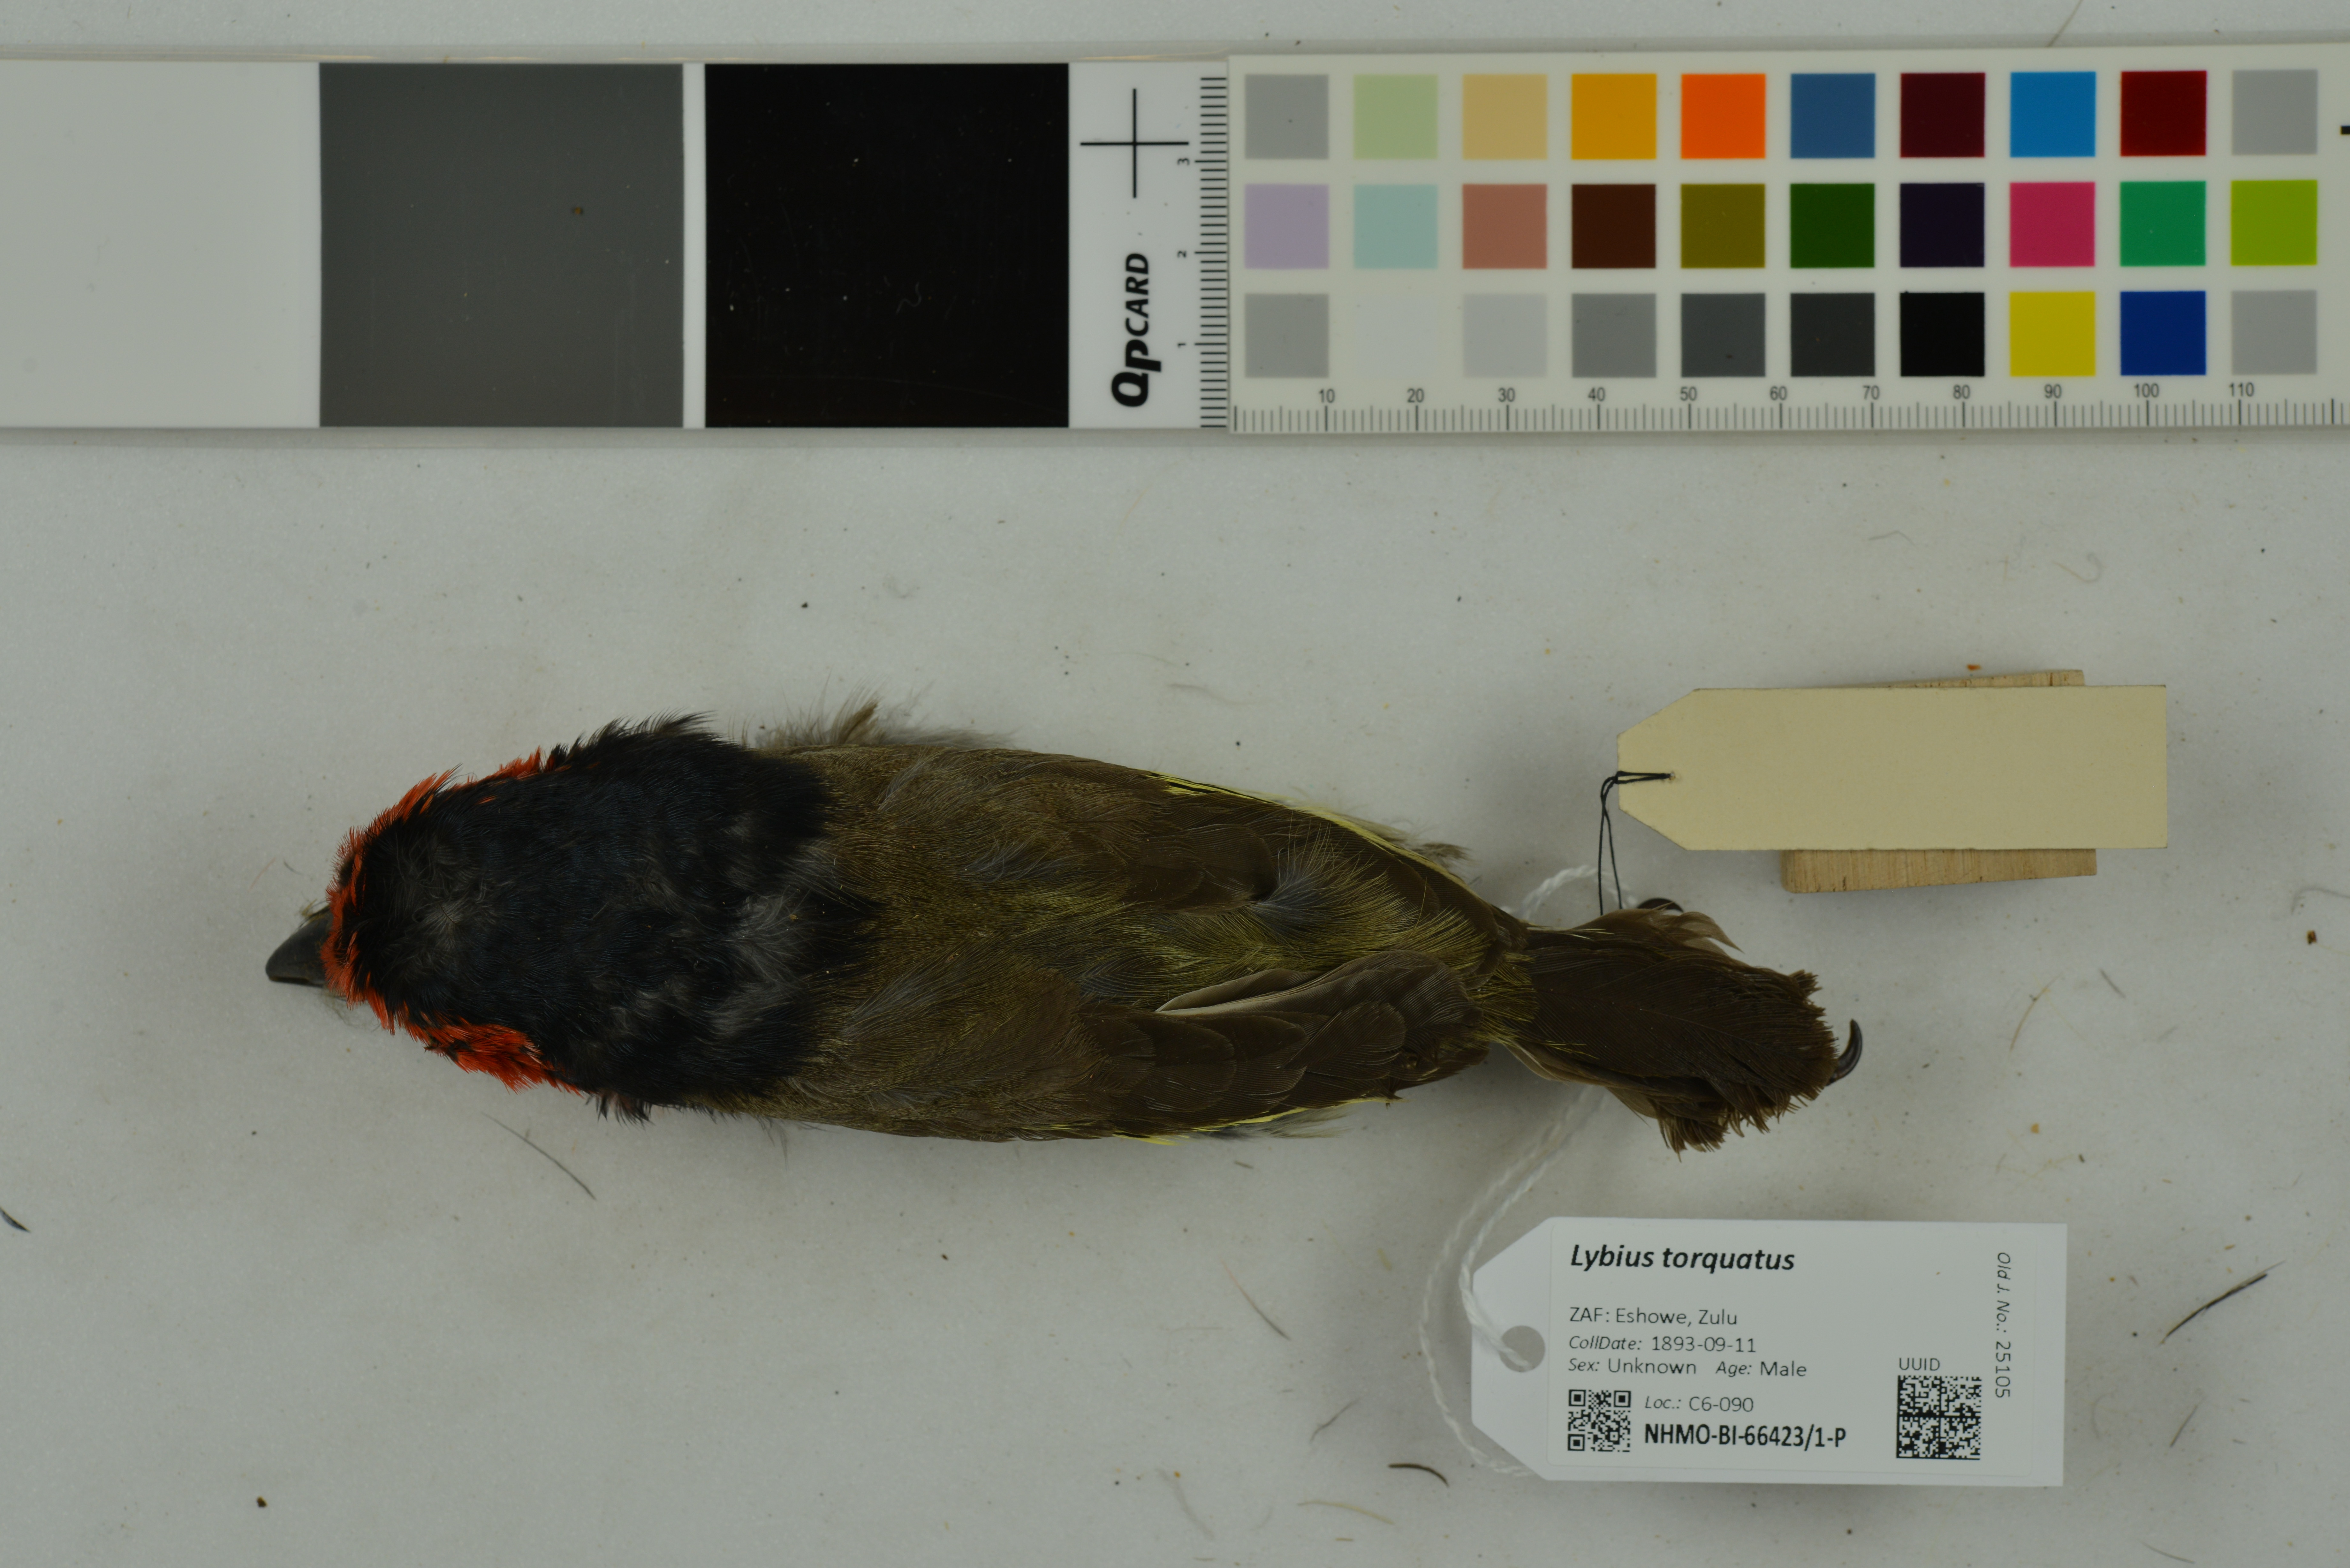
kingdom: Animalia
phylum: Chordata
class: Aves
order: Piciformes
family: Lybiidae
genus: Lybius
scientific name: Lybius torquatus
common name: Black-collared barbet
